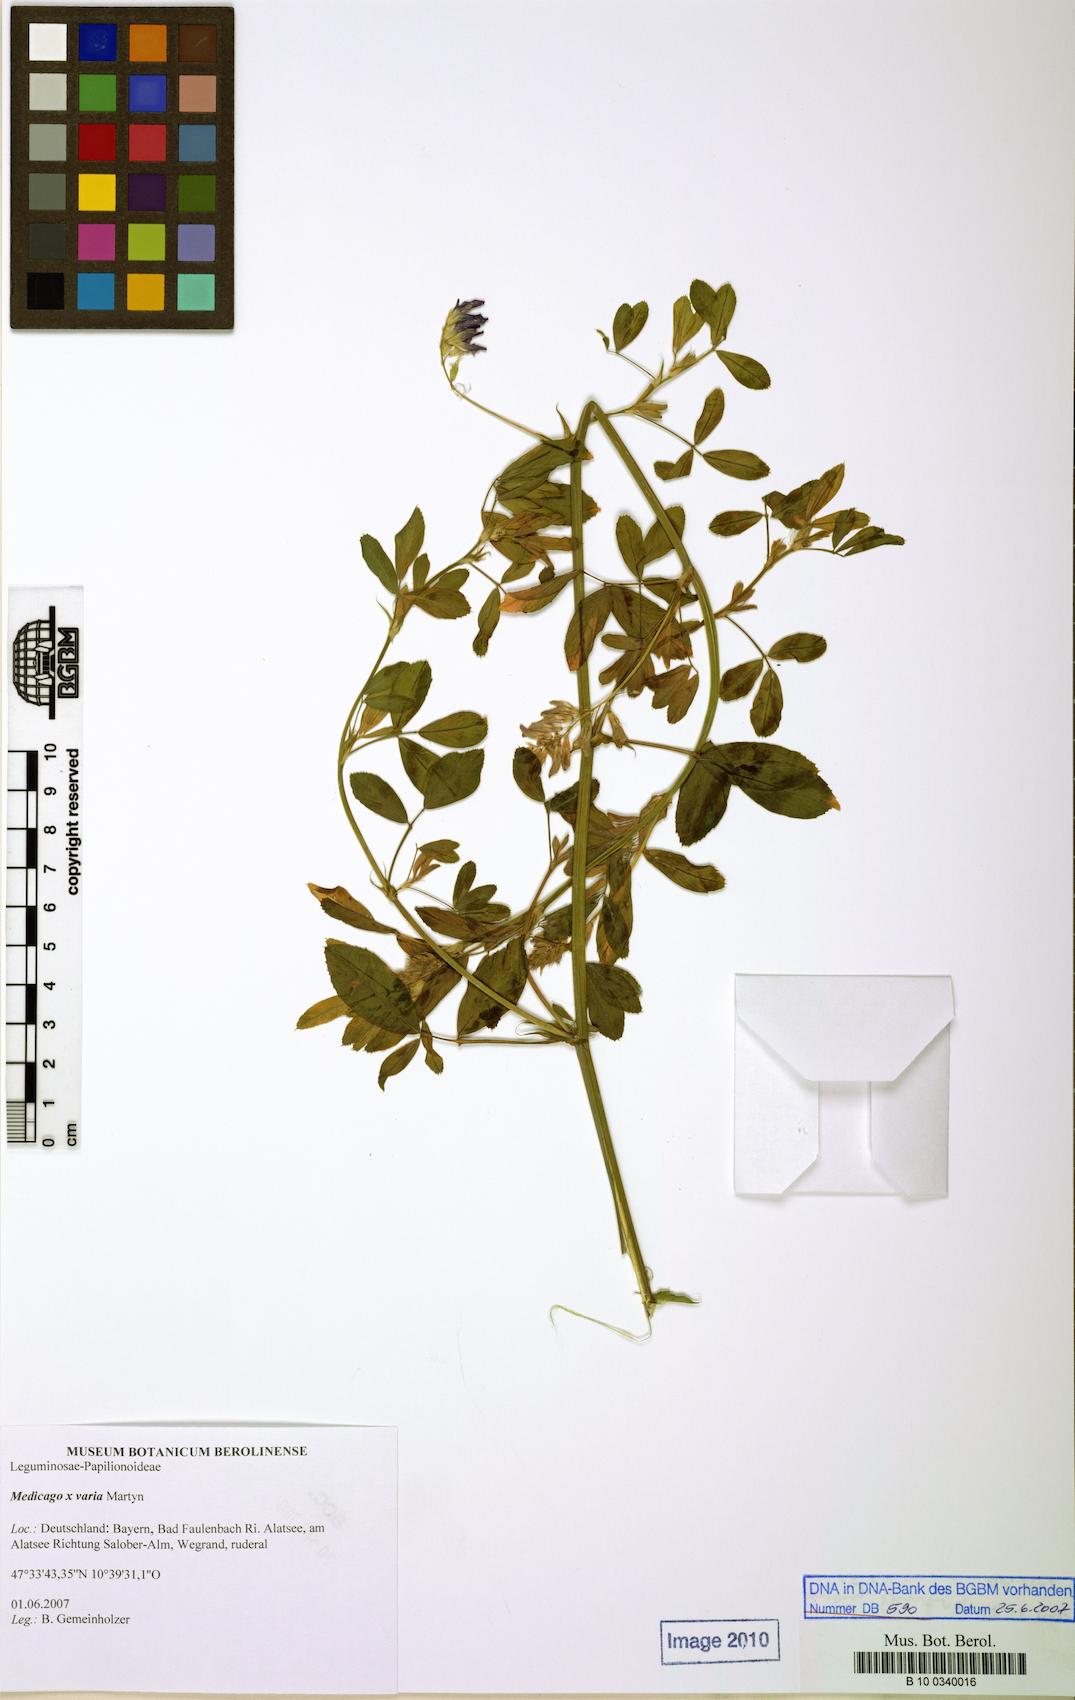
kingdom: Plantae
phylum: Tracheophyta
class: Magnoliopsida
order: Fabales
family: Fabaceae
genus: Medicago
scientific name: Medicago varia
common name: Sand lucerne
